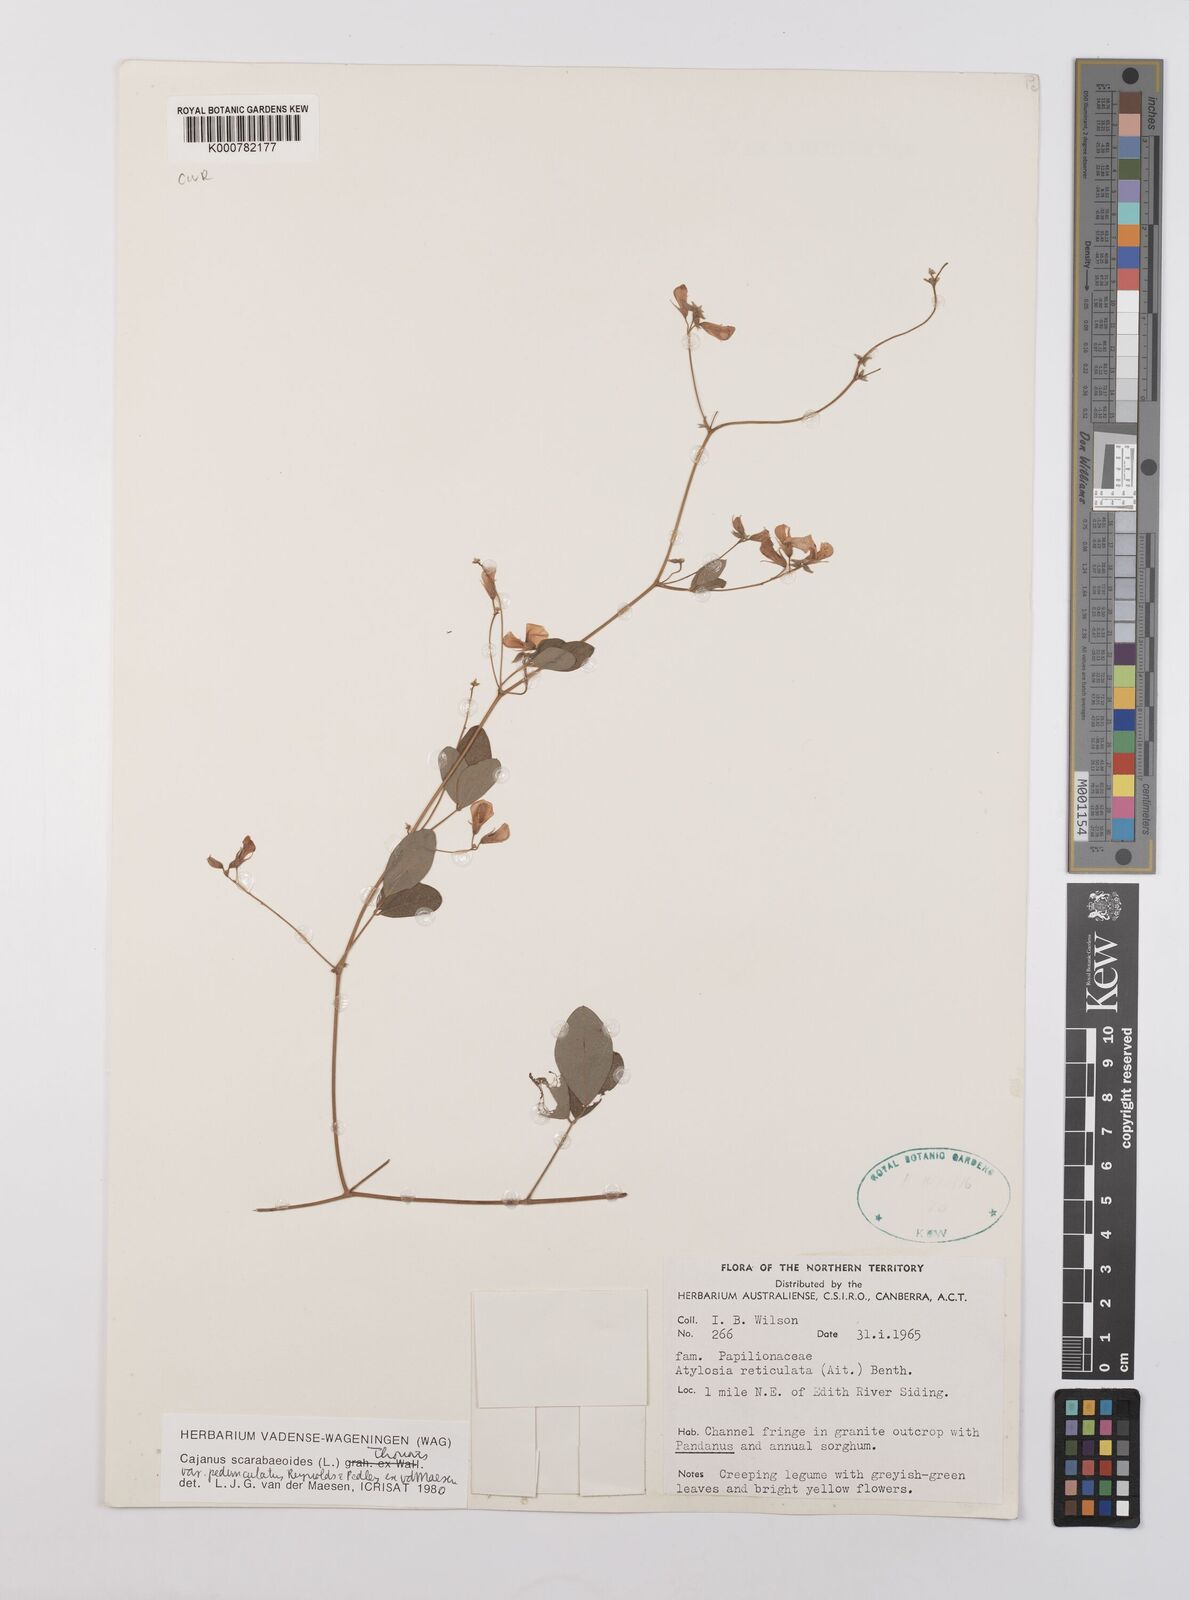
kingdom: Plantae
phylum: Tracheophyta
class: Magnoliopsida
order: Fabales
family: Fabaceae
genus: Cajanus
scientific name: Cajanus scarabaeoides
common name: Showy pigeonpea
